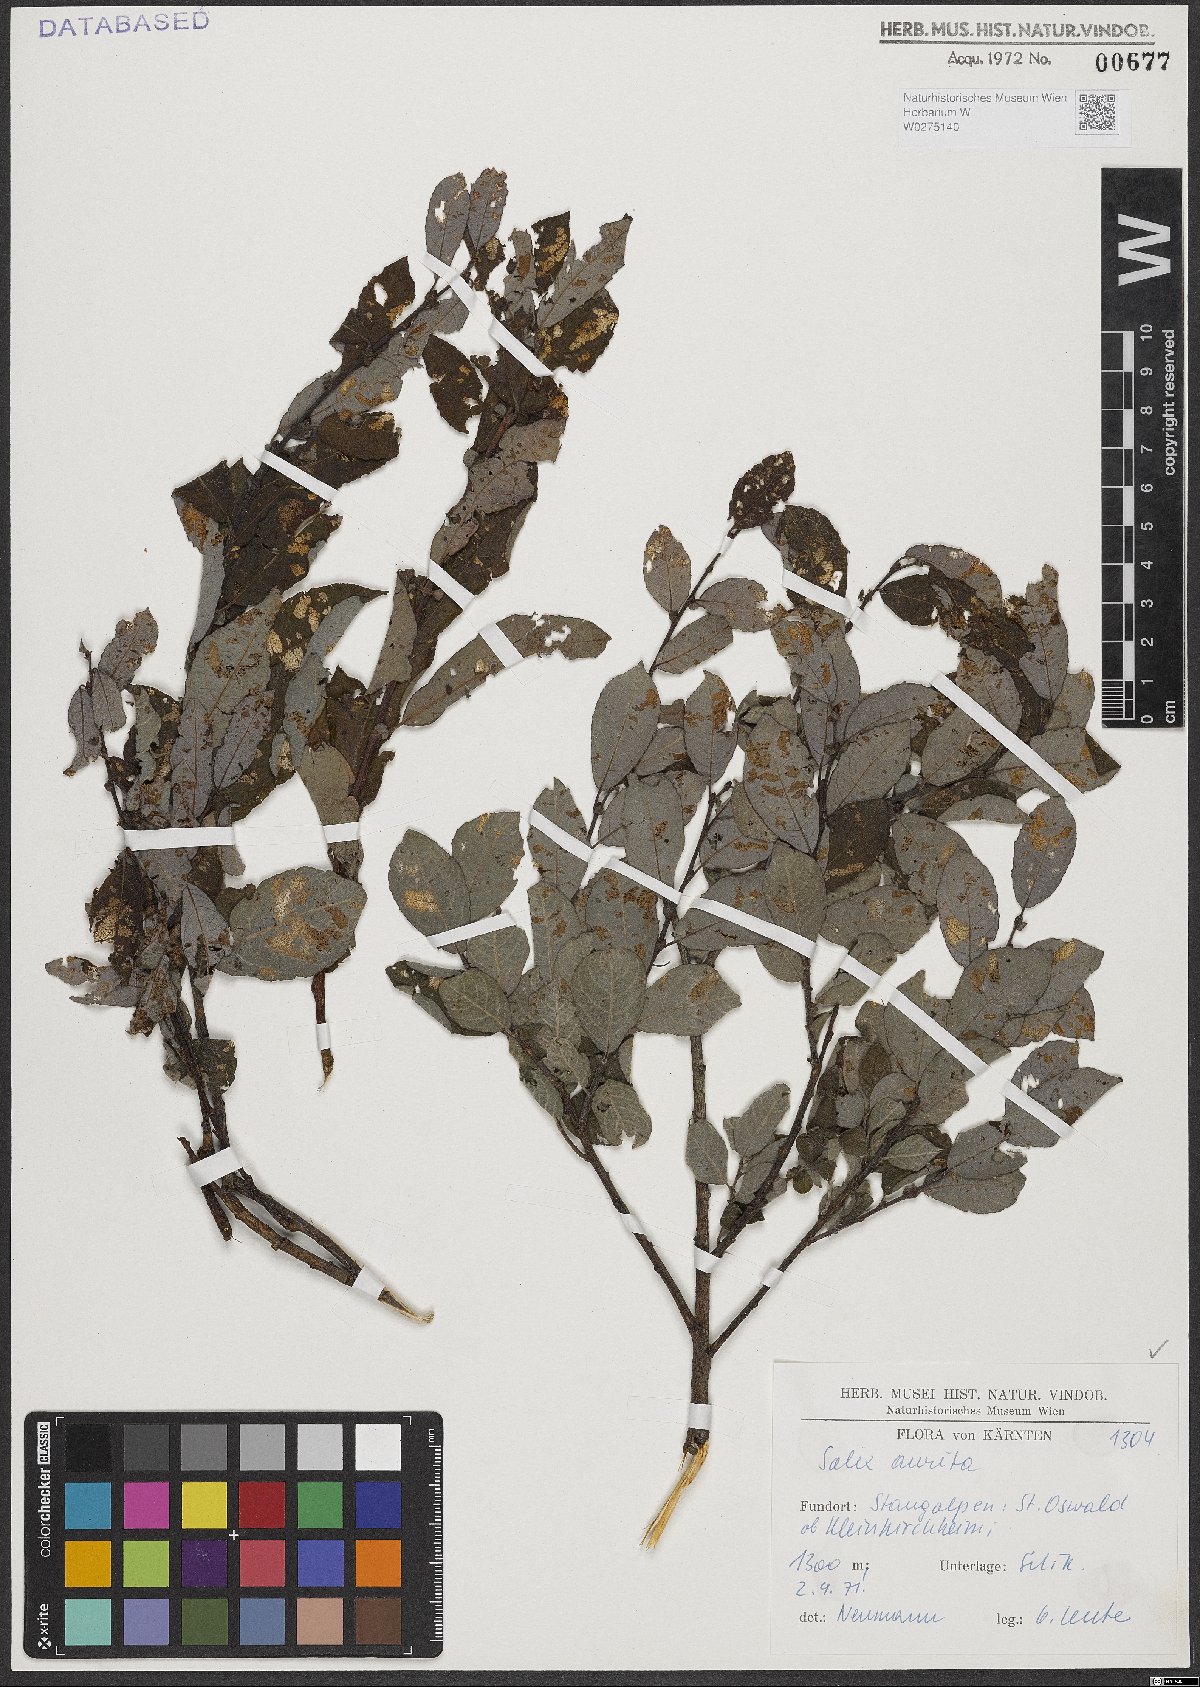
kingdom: Plantae
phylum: Tracheophyta
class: Magnoliopsida
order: Malpighiales
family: Salicaceae
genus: Salix
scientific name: Salix aurita
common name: Eared willow
